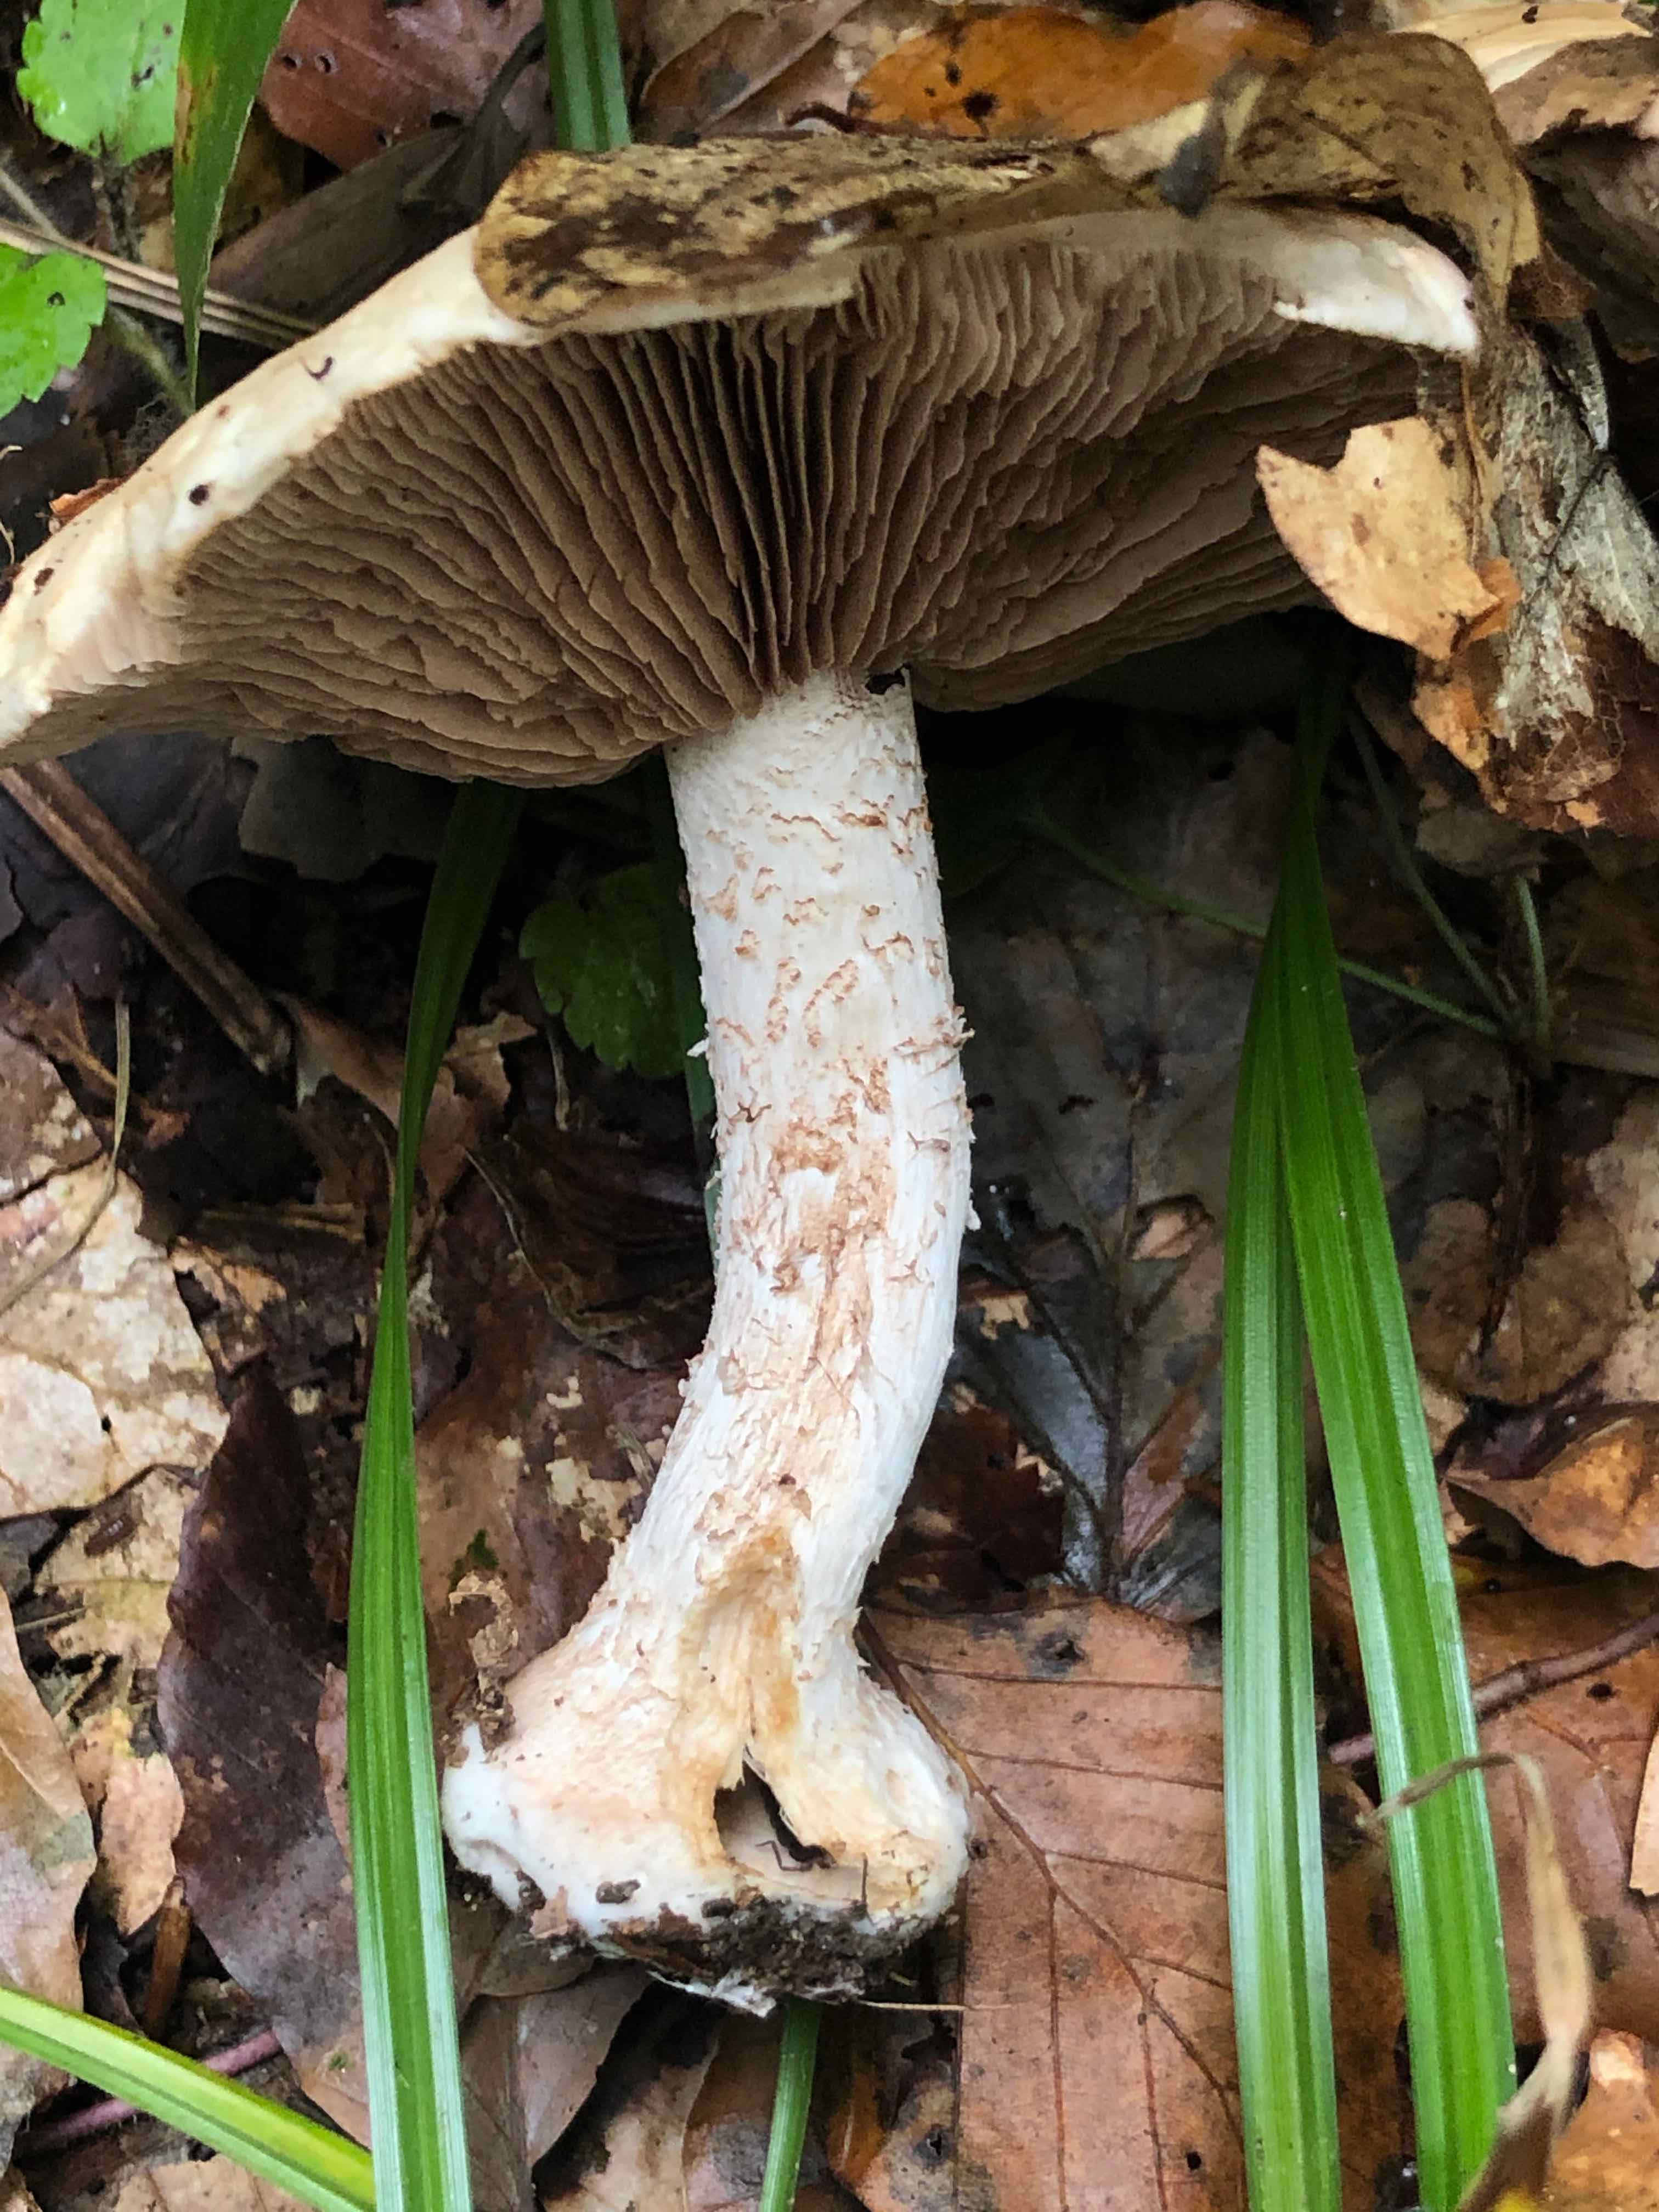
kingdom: Fungi
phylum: Basidiomycota
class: Agaricomycetes
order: Agaricales
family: Hymenogastraceae
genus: Hebeloma
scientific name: Hebeloma sinapizans
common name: ræddike-tåreblad
